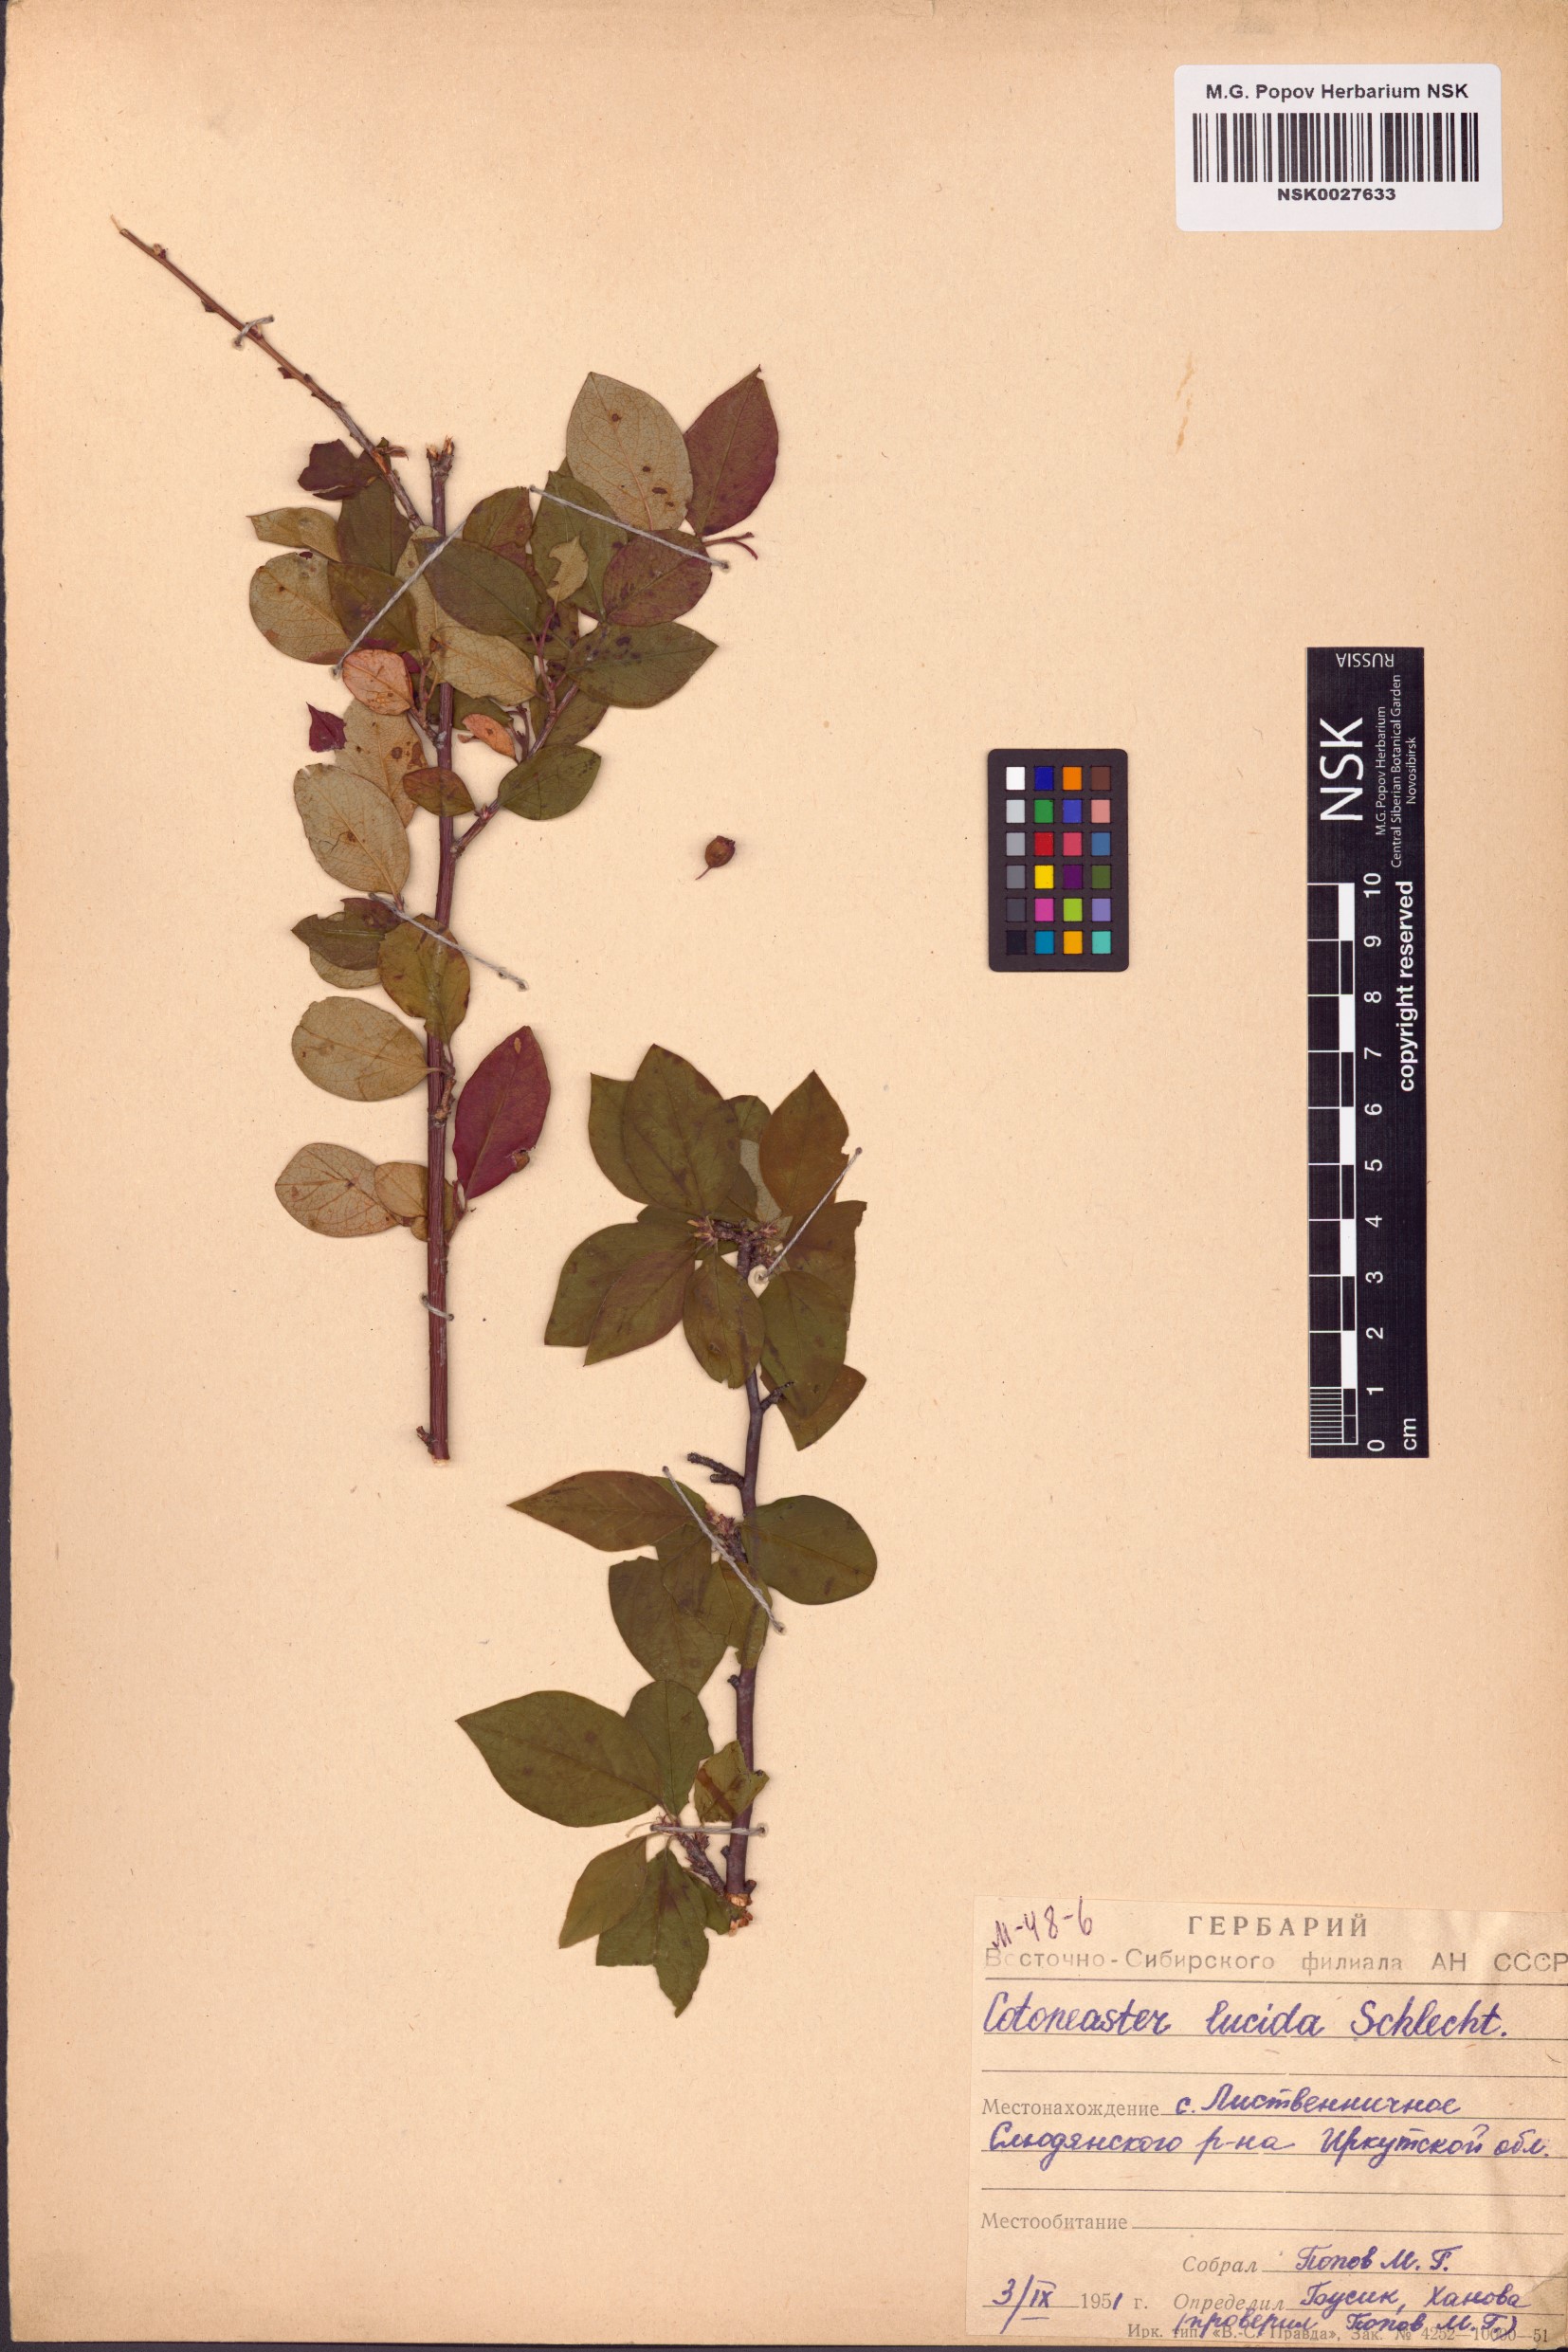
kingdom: Plantae
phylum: Tracheophyta
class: Magnoliopsida
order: Rosales
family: Rosaceae
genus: Cotoneaster
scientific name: Cotoneaster acutifolius
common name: Peking cotoneaster
